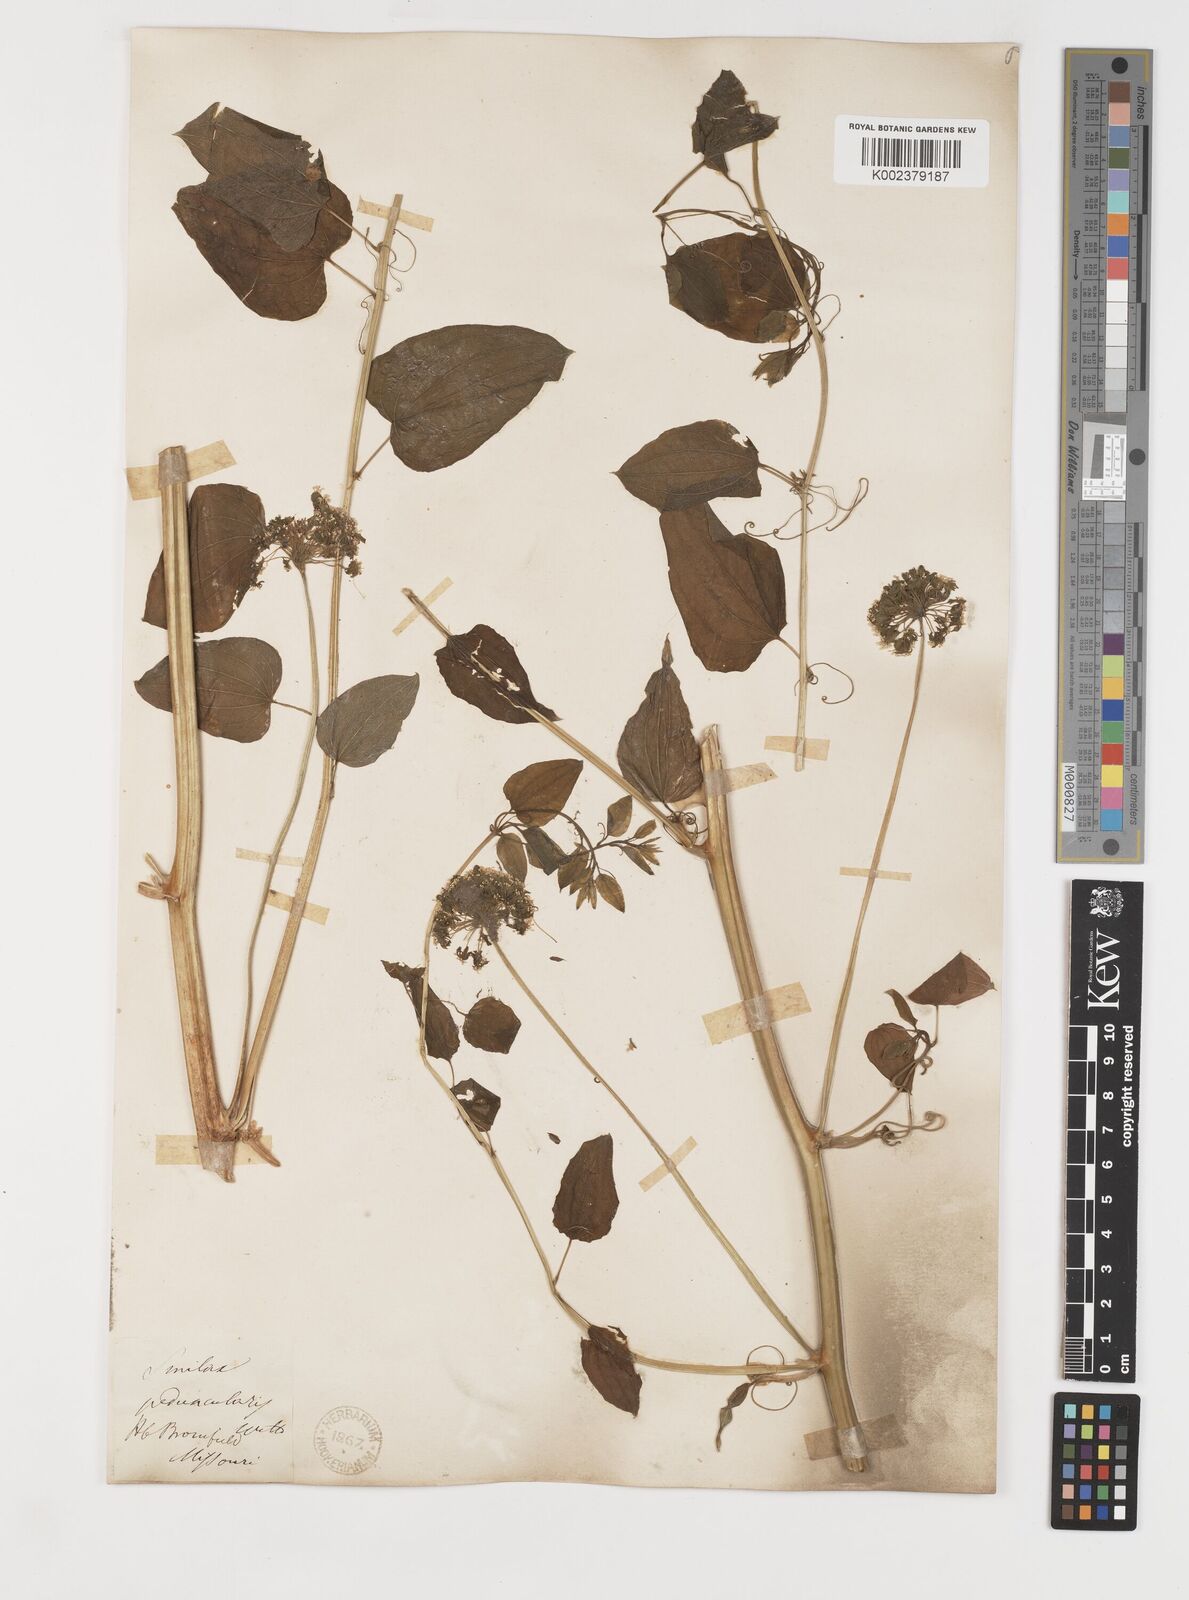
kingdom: Plantae
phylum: Tracheophyta
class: Liliopsida
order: Liliales
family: Smilacaceae
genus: Smilax
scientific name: Smilax
